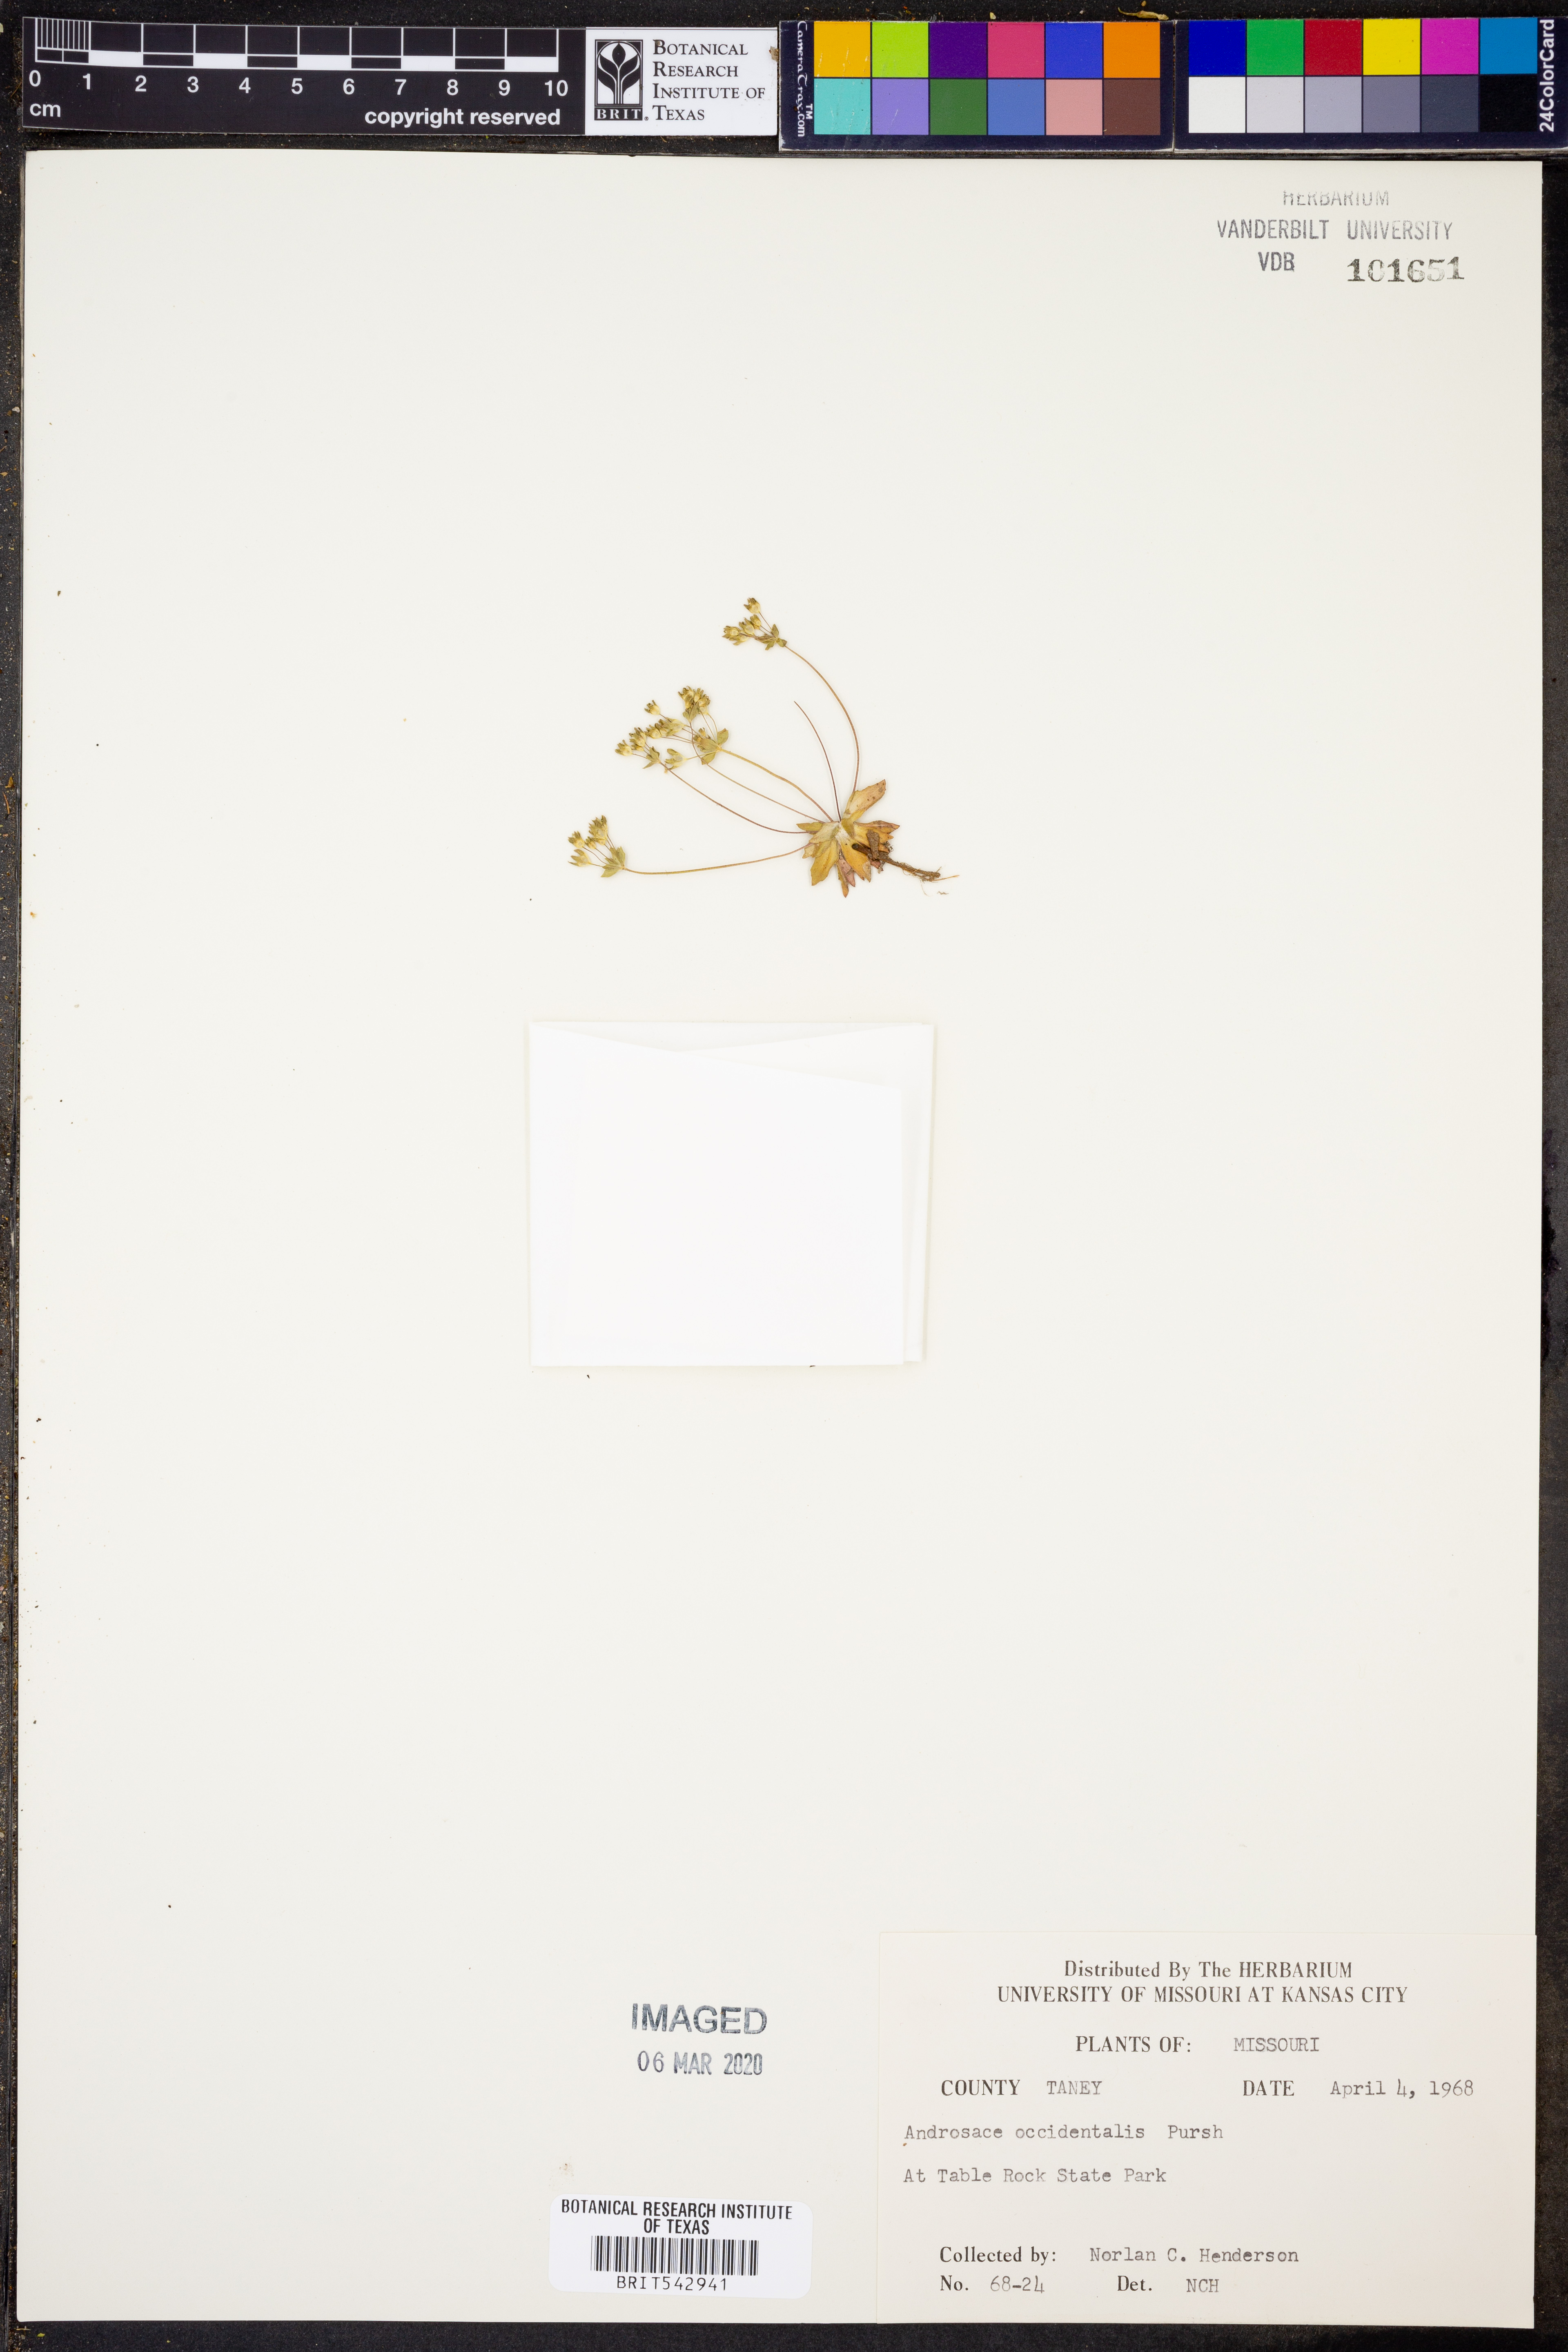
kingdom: Plantae
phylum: Tracheophyta
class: Magnoliopsida
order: Ericales
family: Primulaceae
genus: Androsace
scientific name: Androsace occidentalis
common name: West rock-jasmine
